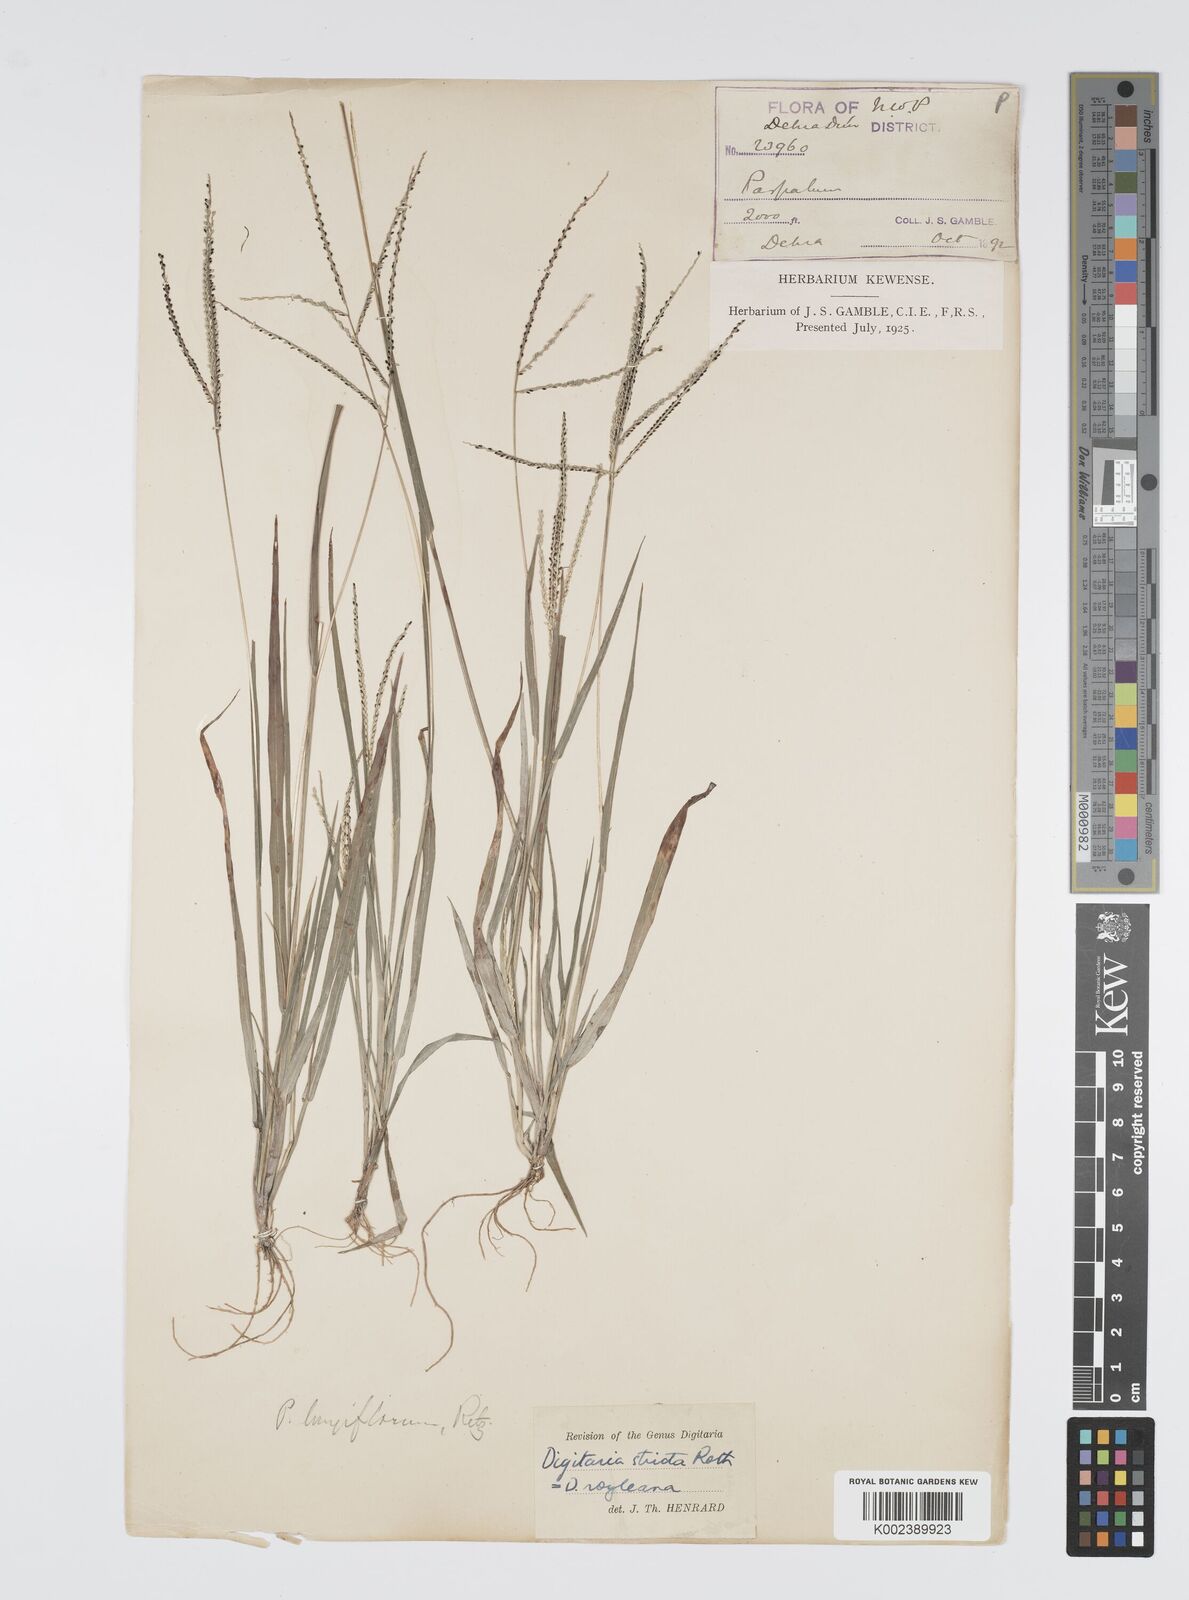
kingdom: Plantae
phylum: Tracheophyta
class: Liliopsida
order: Poales
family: Poaceae
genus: Digitaria
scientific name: Digitaria stricta
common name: Crabgrass
